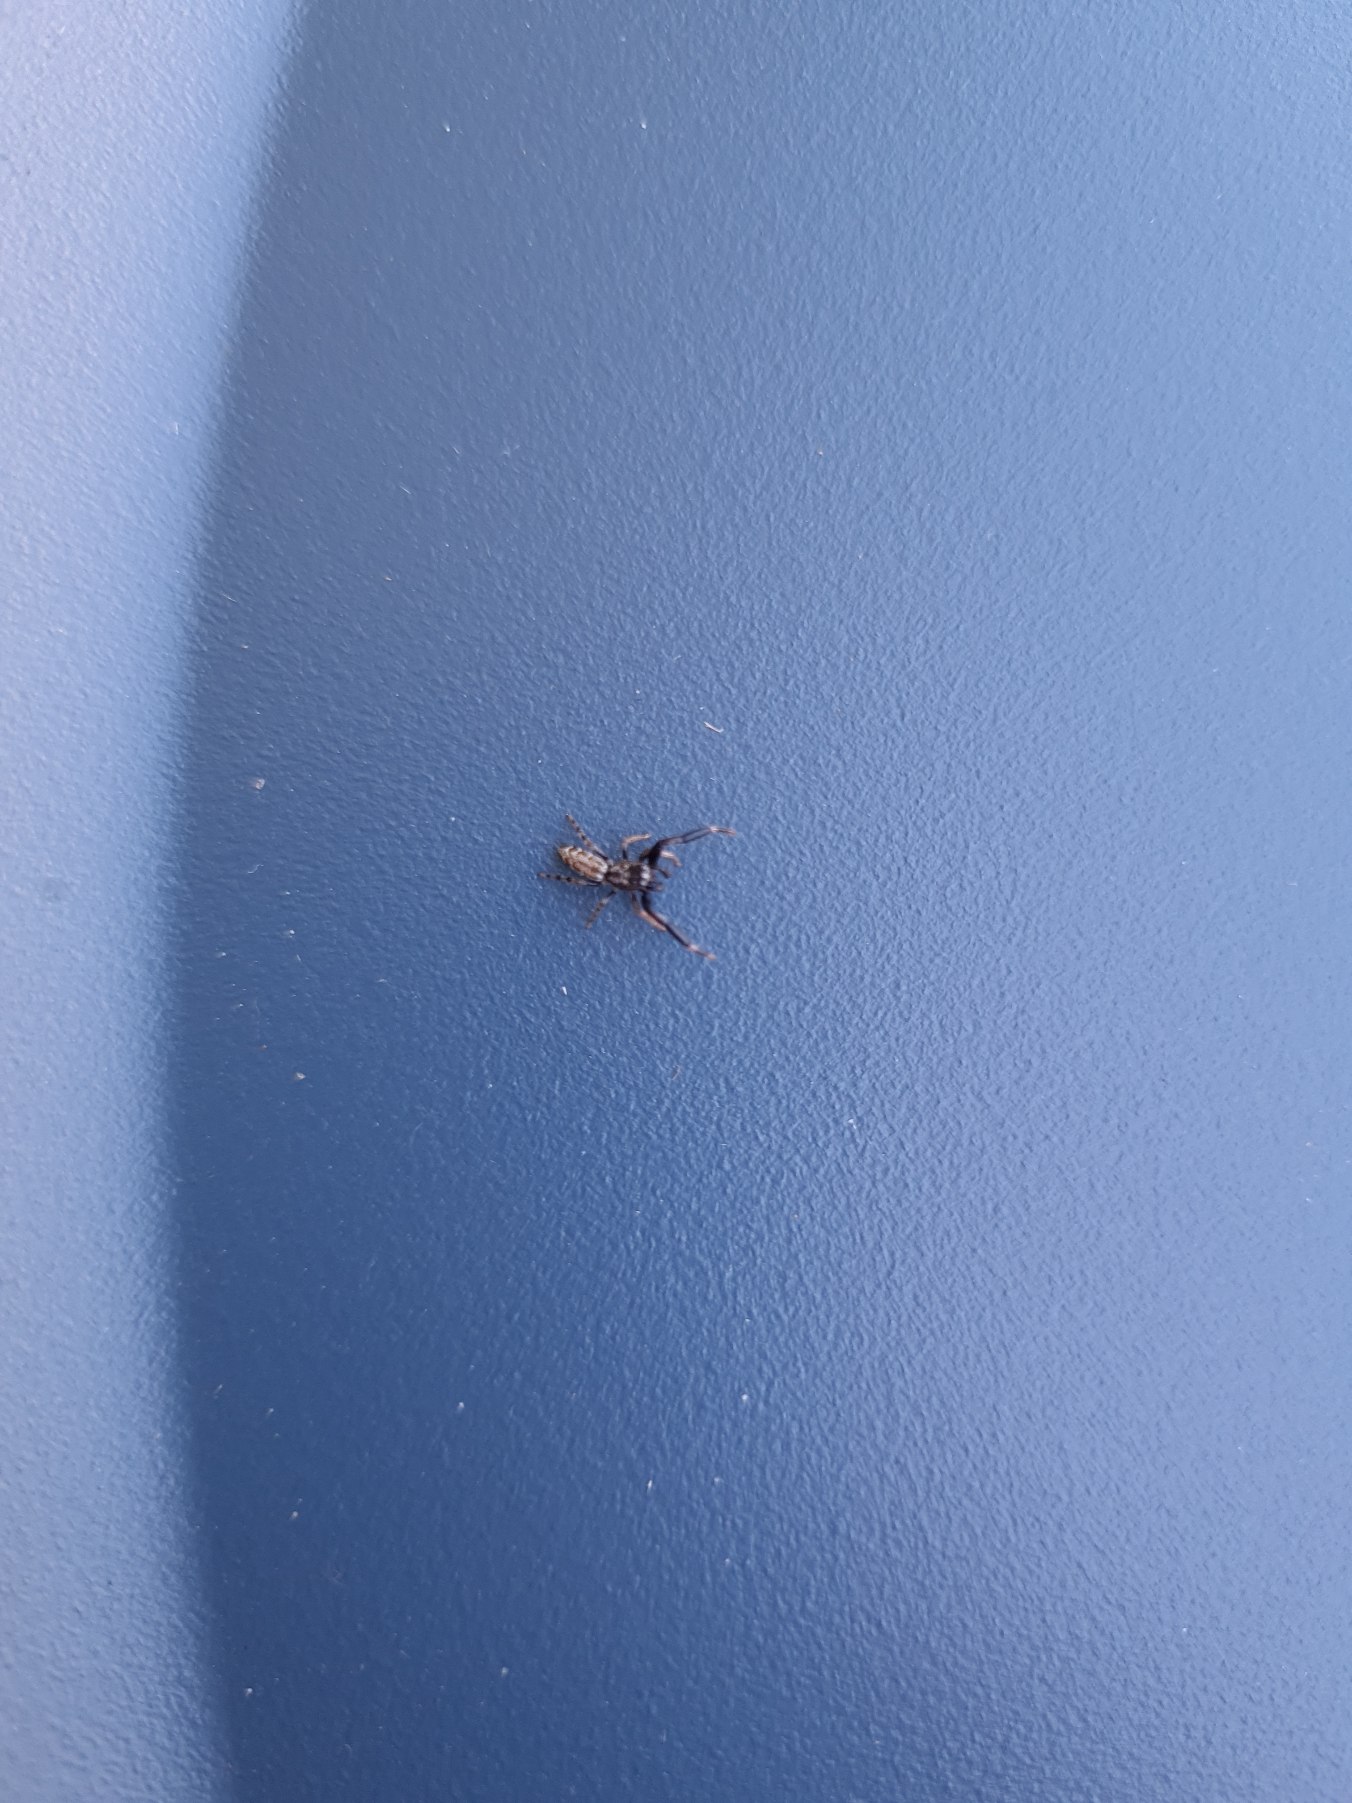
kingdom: Animalia
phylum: Arthropoda
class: Arachnida
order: Araneae
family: Salticidae
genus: Marpissa
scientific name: Marpissa nivoyi
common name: Klitspringedderkop
